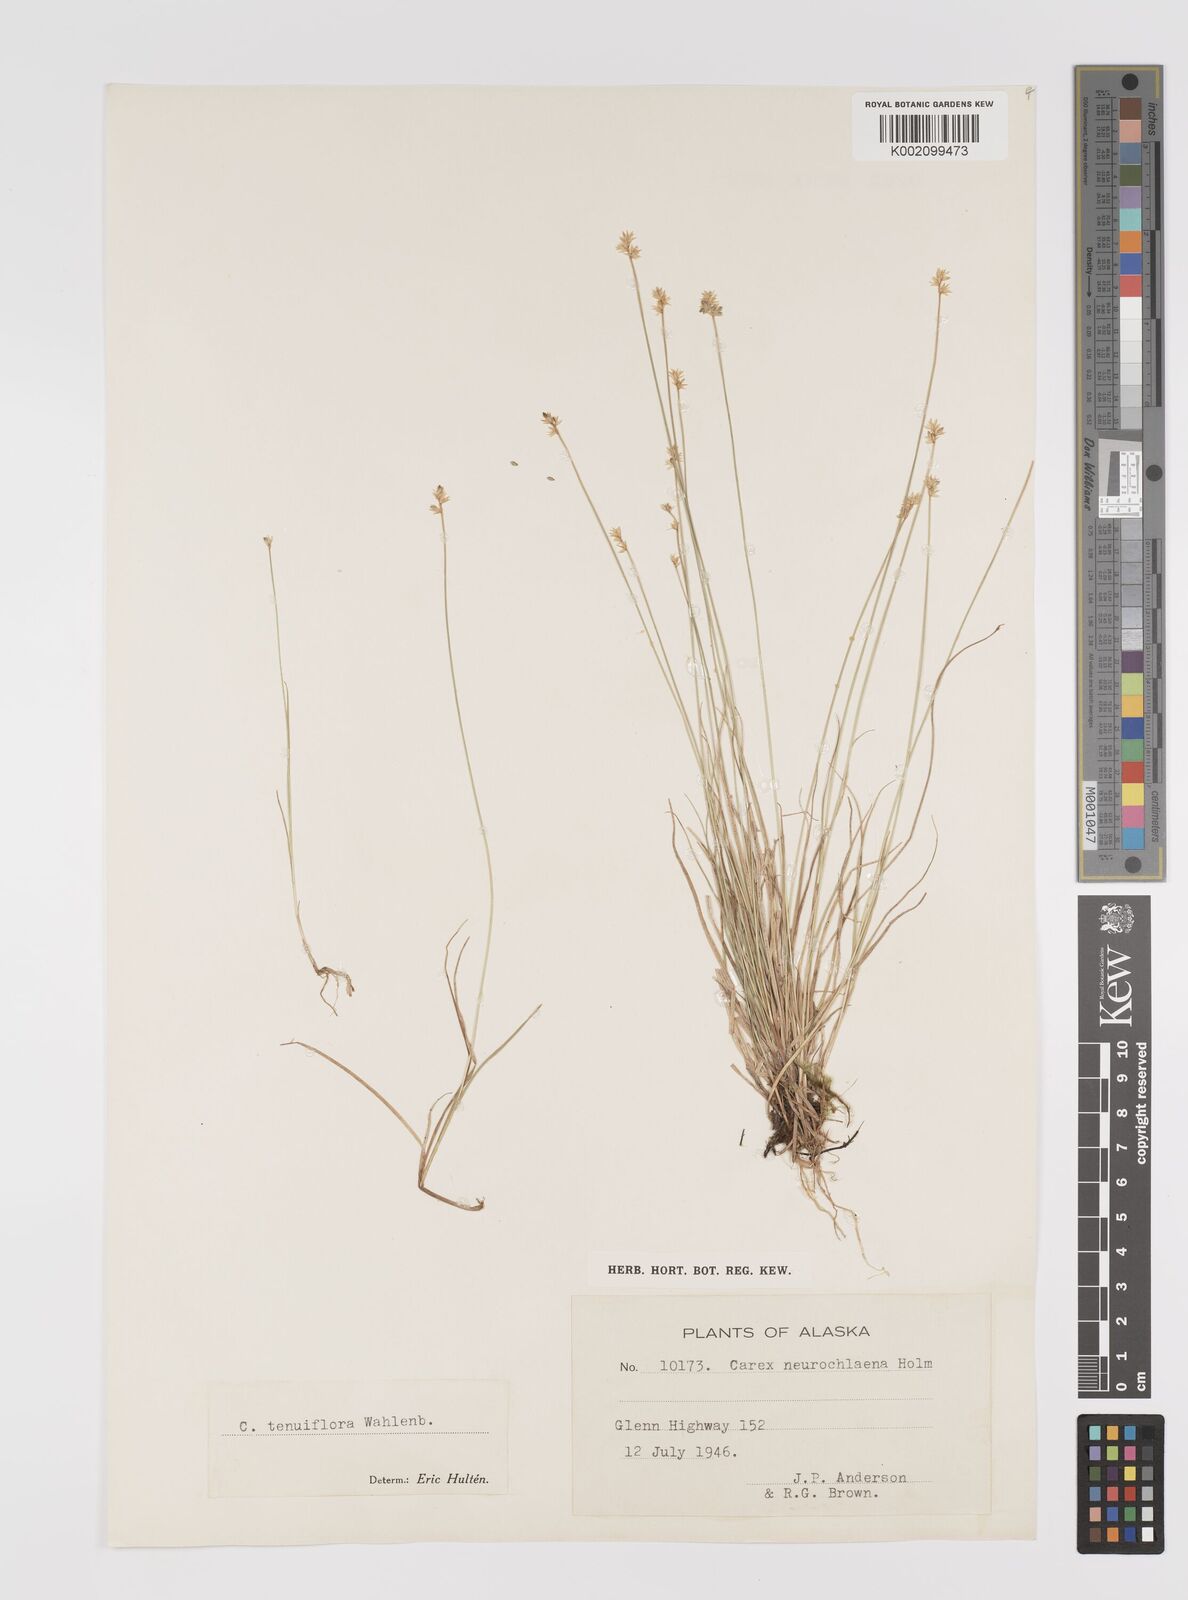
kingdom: Plantae
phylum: Tracheophyta
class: Liliopsida
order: Poales
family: Cyperaceae
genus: Carex
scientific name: Carex tenuiflora
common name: Sparse-flowered sedge
